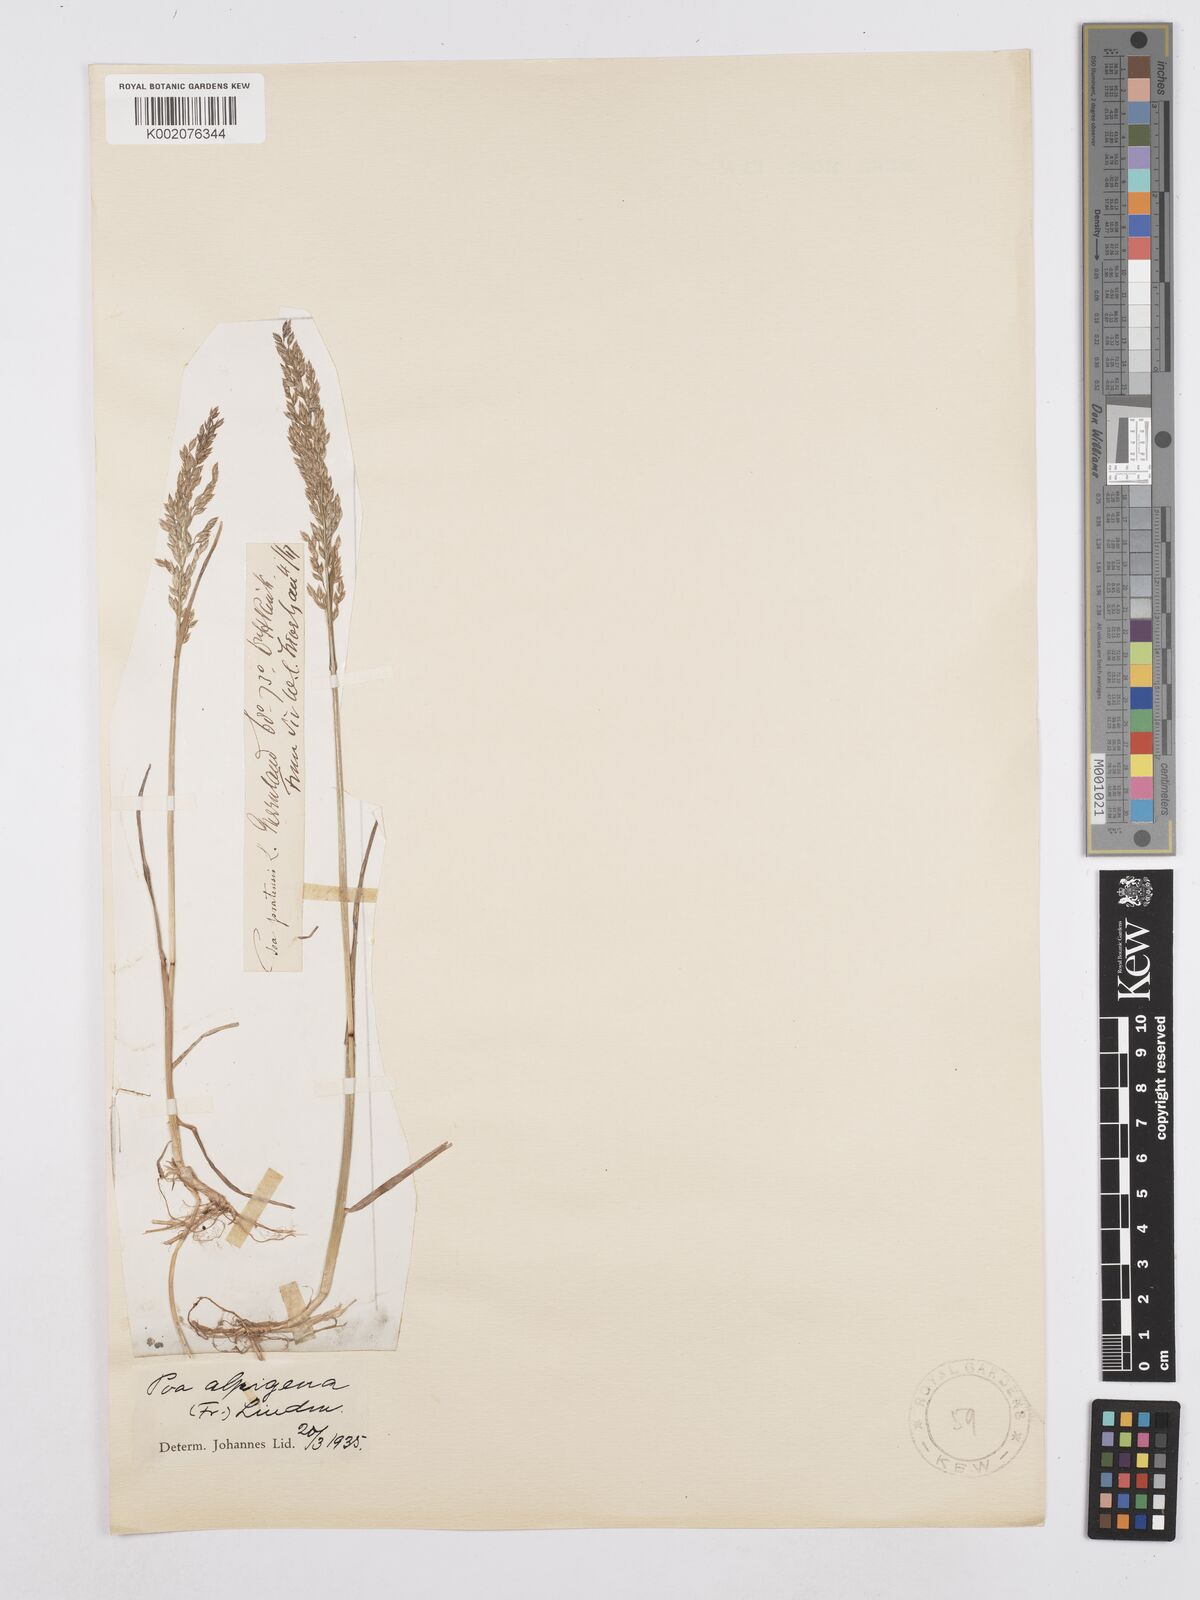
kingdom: Plantae
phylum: Tracheophyta
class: Liliopsida
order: Poales
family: Poaceae
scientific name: Poaceae
